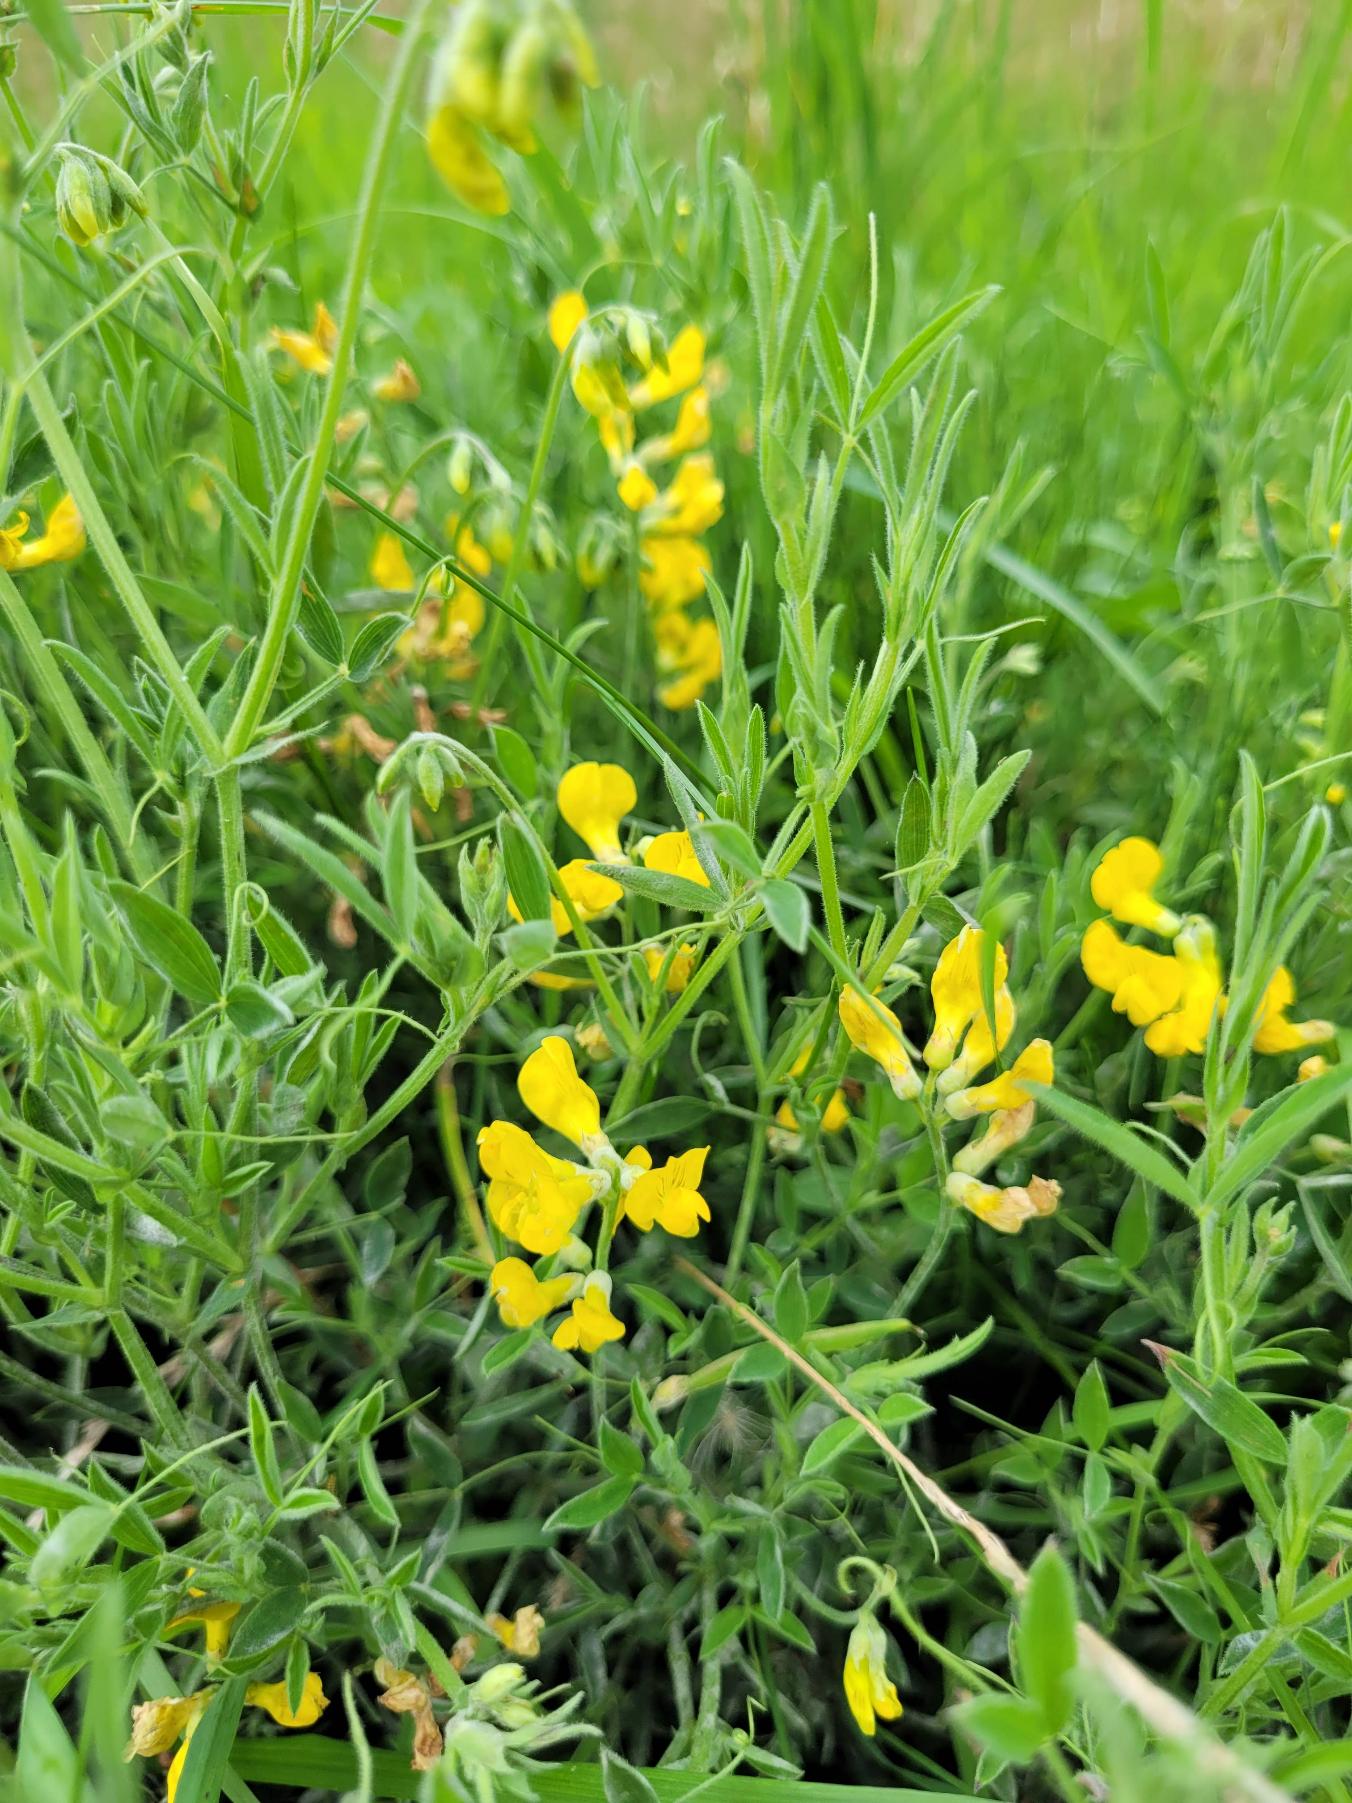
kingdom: Plantae
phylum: Tracheophyta
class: Magnoliopsida
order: Fabales
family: Fabaceae
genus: Lathyrus
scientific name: Lathyrus pratensis
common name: Gul fladbælg
